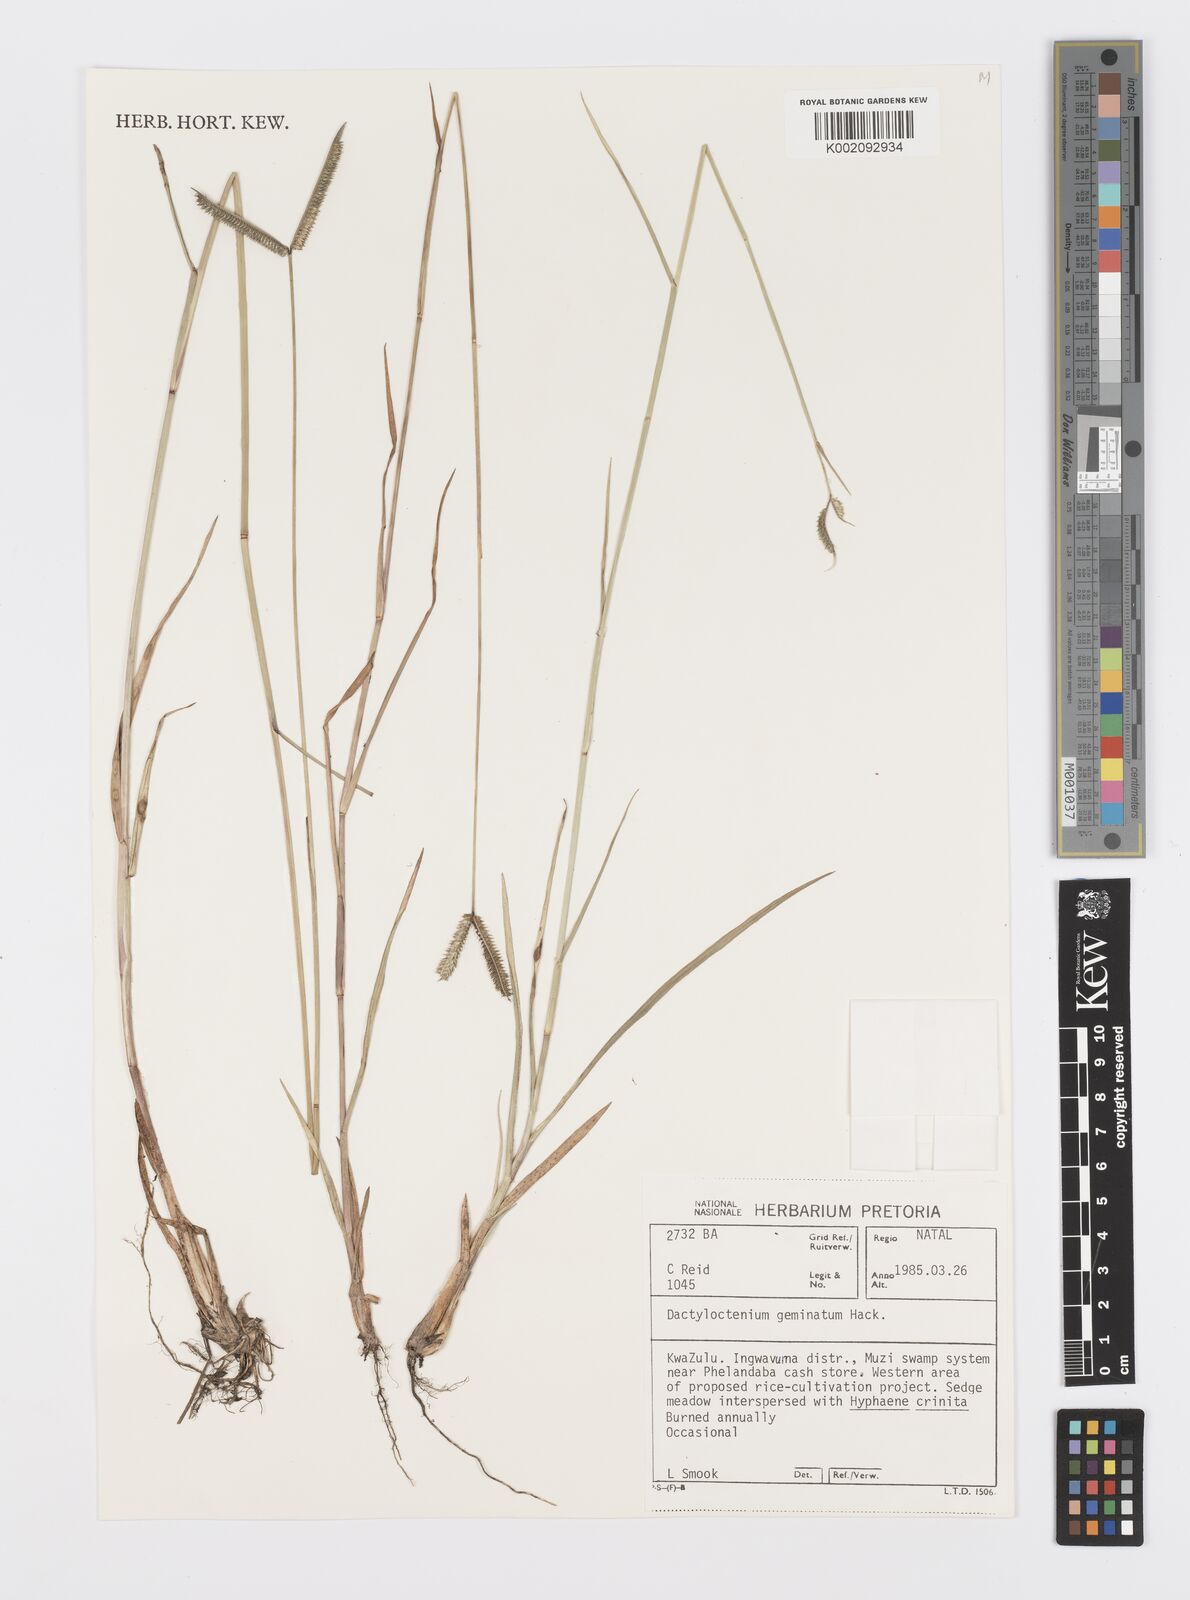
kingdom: Plantae
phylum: Tracheophyta
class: Liliopsida
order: Poales
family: Poaceae
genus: Dactyloctenium
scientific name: Dactyloctenium geminatum
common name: Crowsfoot grass
